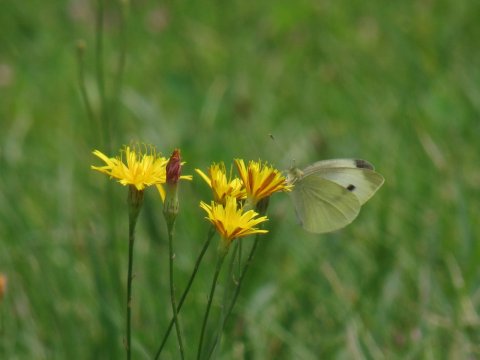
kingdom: Animalia
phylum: Arthropoda
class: Insecta
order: Lepidoptera
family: Pieridae
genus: Pieris
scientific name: Pieris rapae
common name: Cabbage White
